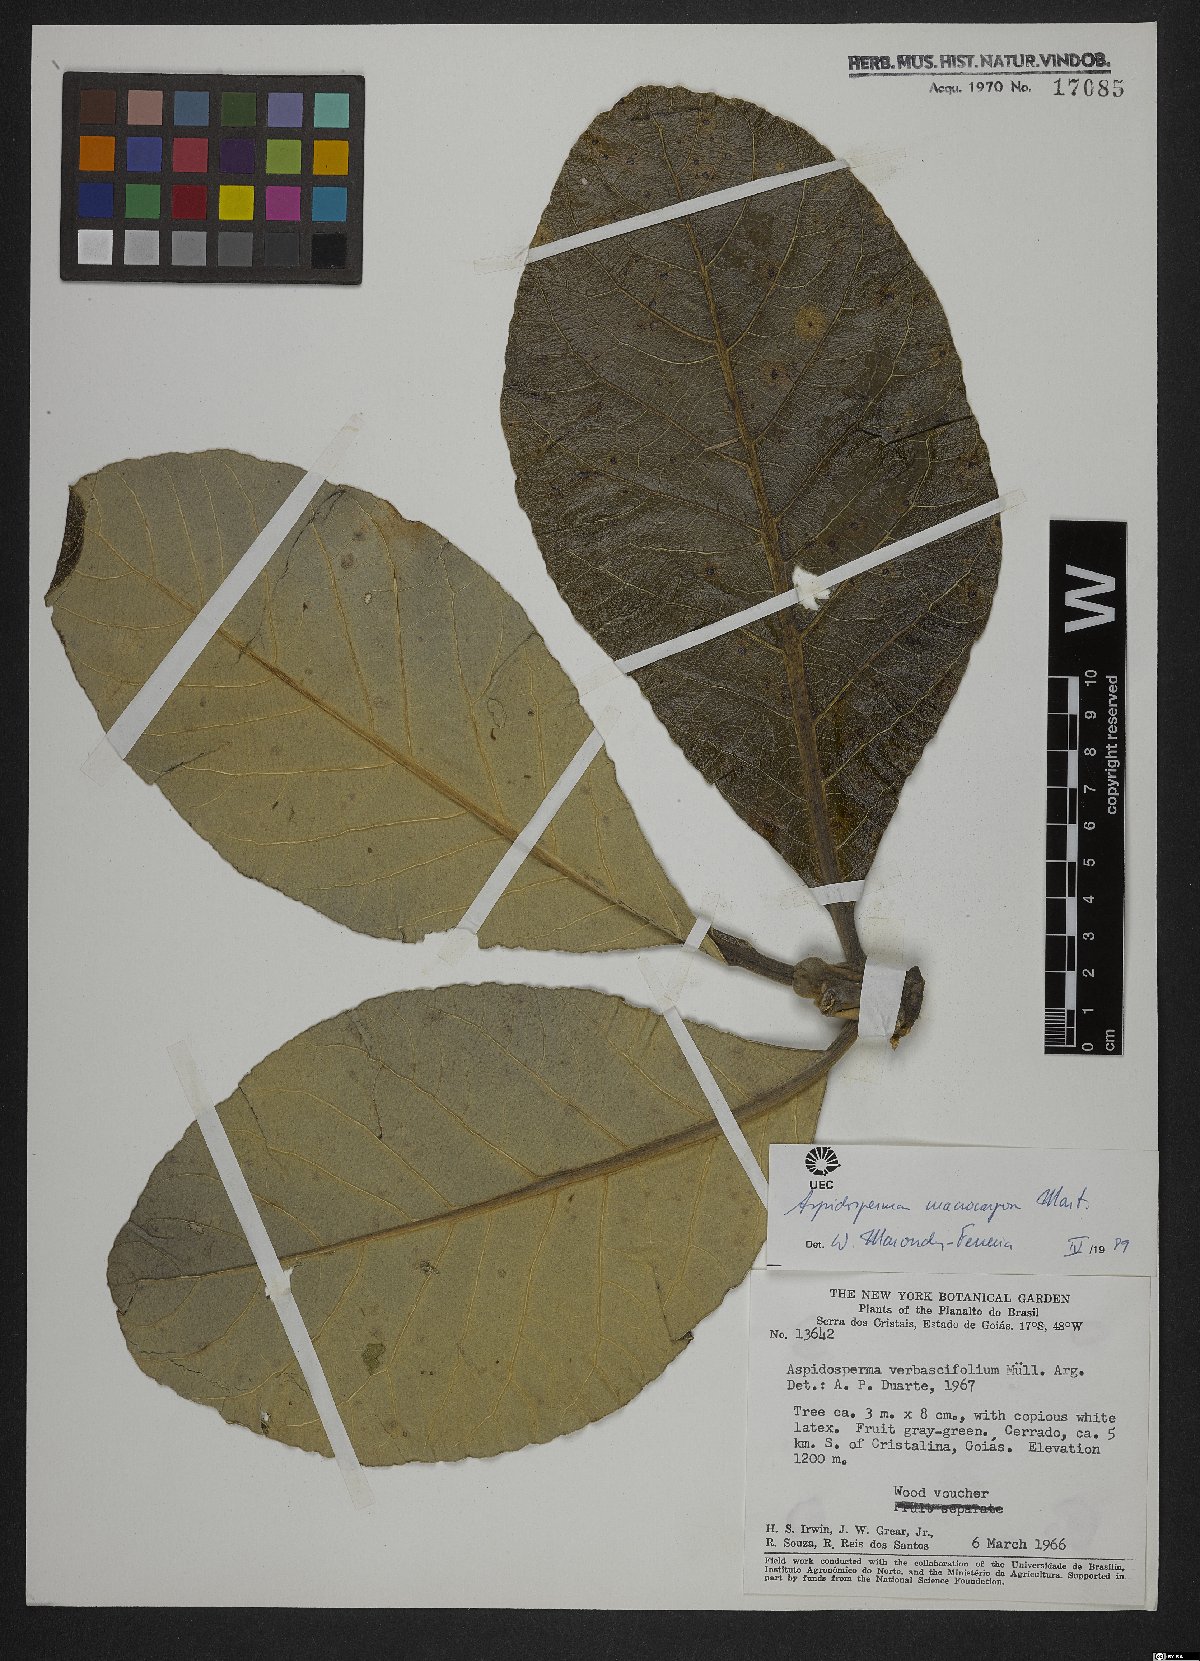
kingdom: Plantae
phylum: Tracheophyta
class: Magnoliopsida
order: Gentianales
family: Apocynaceae
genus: Aspidosperma
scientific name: Aspidosperma macrocarpon
